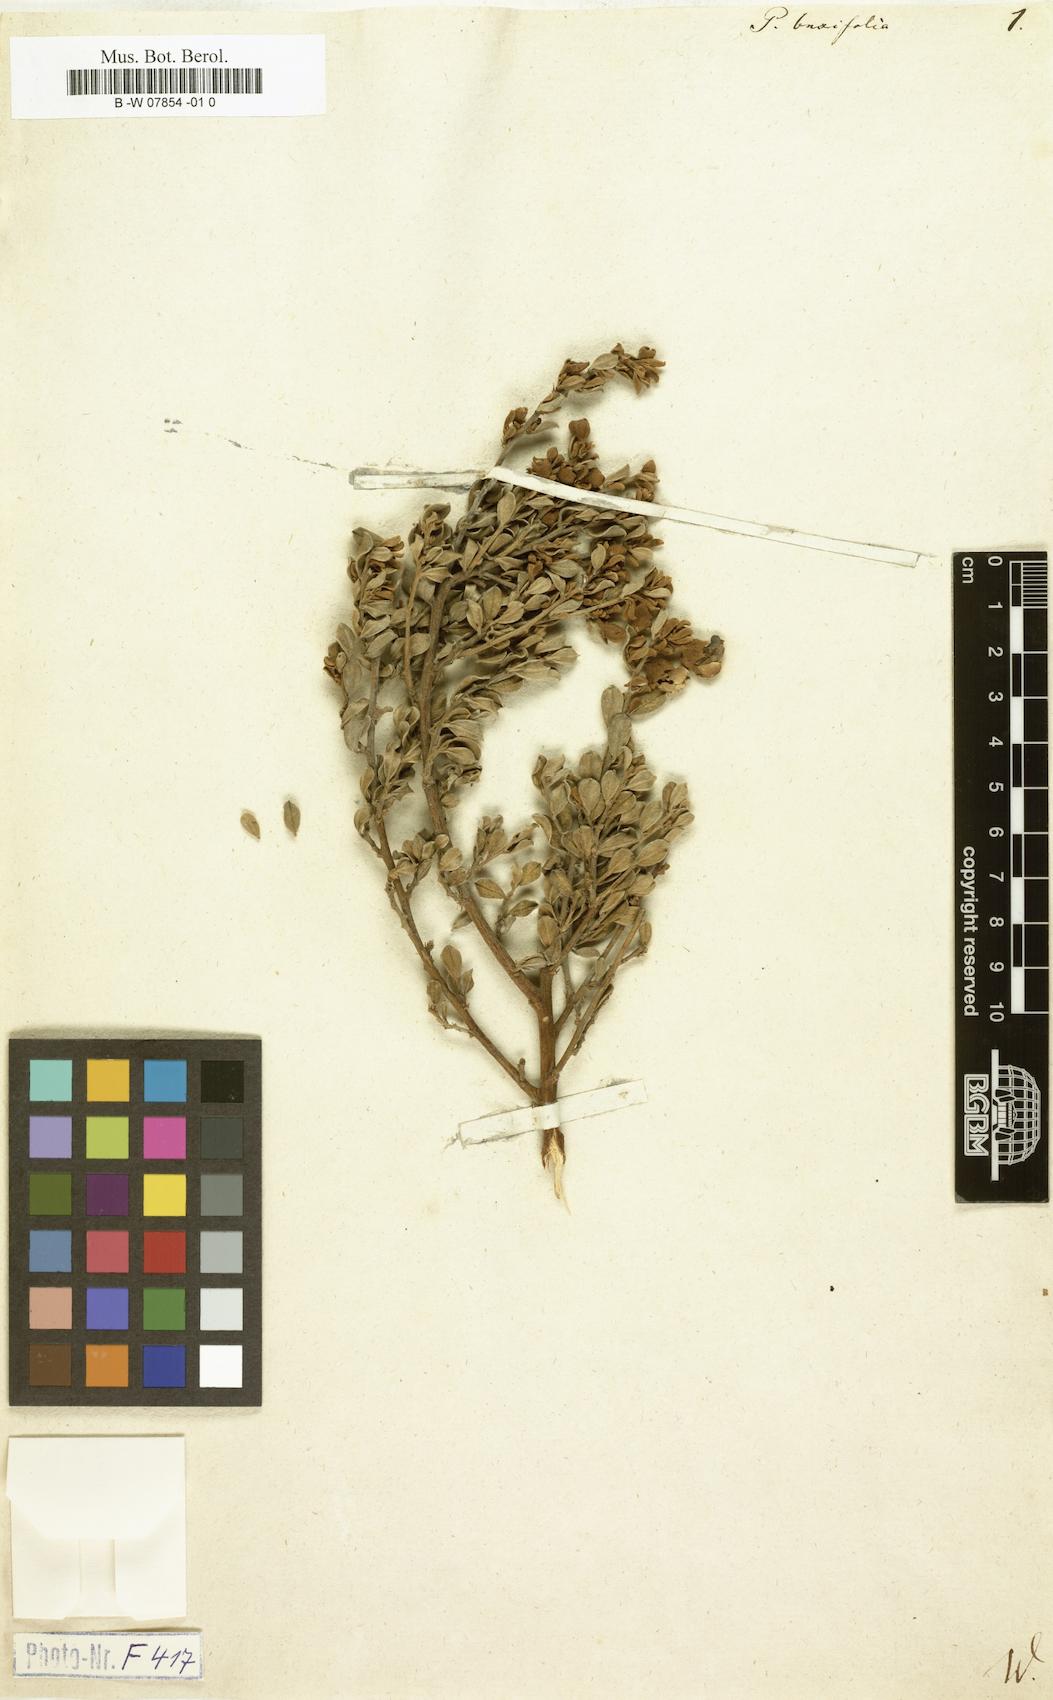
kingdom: Plantae
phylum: Tracheophyta
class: Magnoliopsida
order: Fabales
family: Fabaceae
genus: Podalyria
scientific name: Podalyria buxifolia
